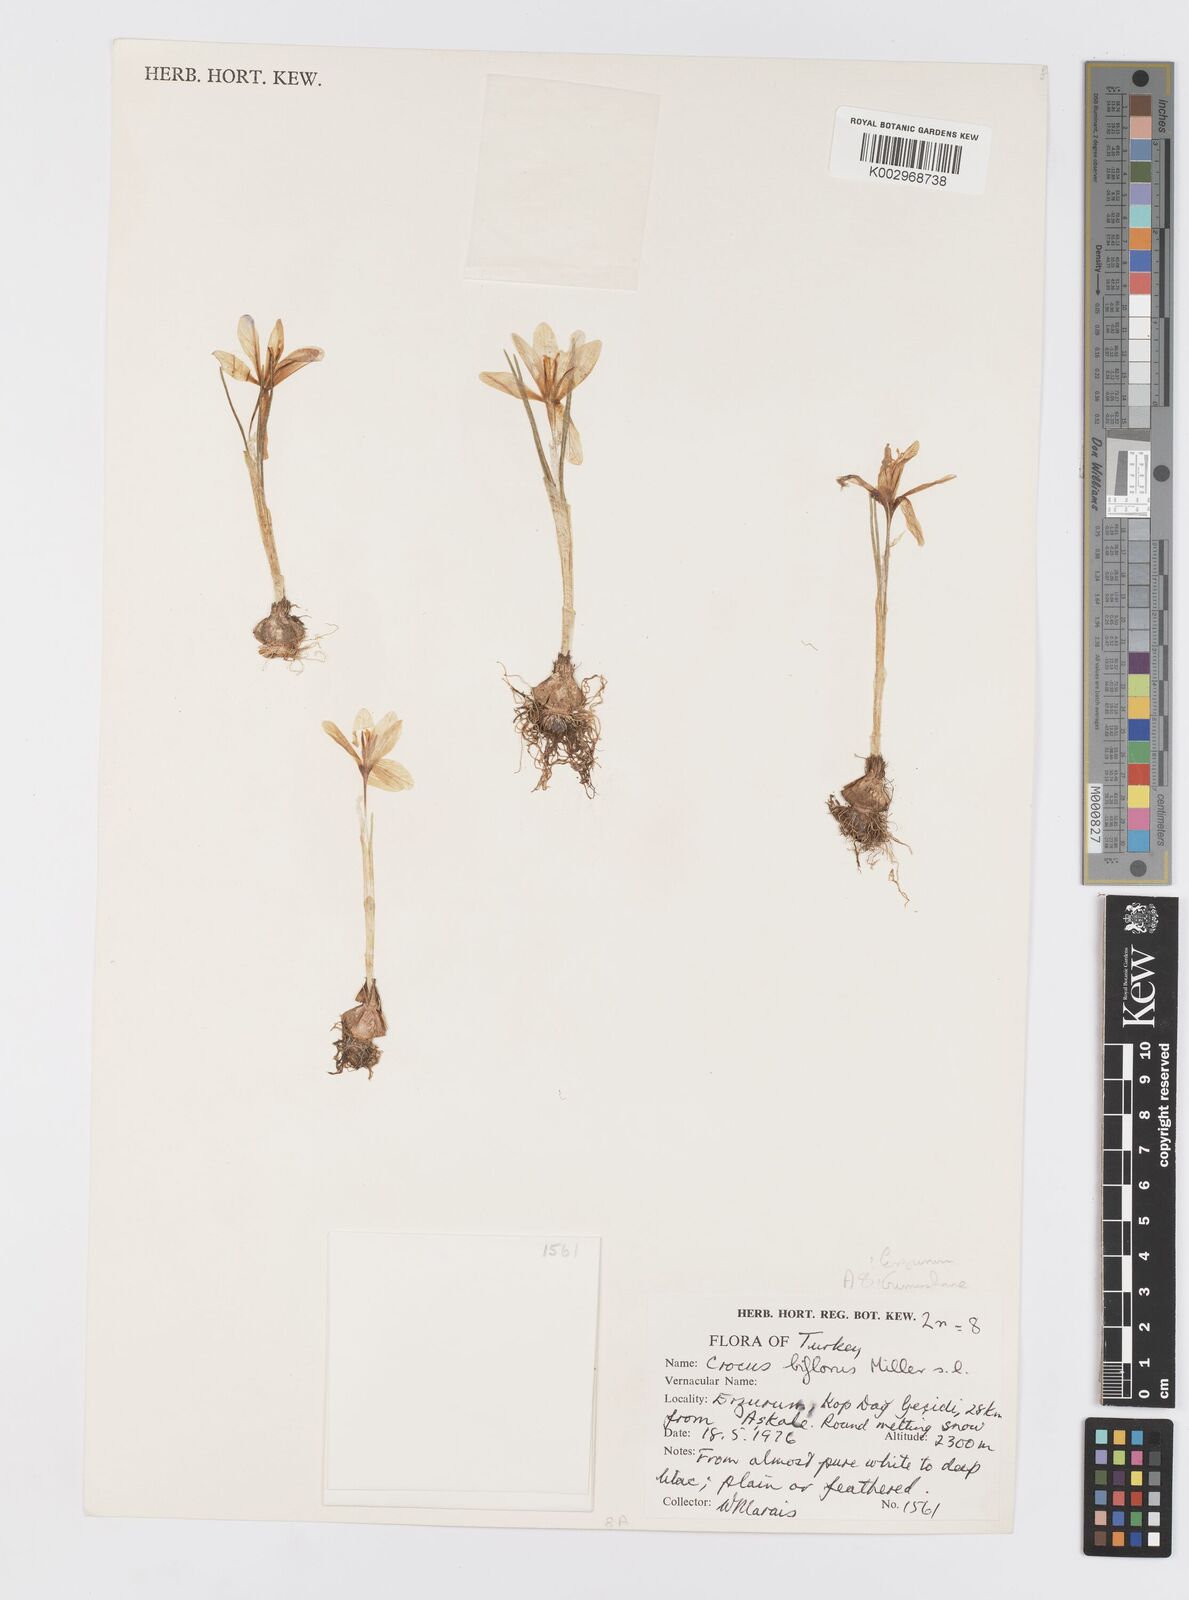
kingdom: Plantae
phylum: Tracheophyta
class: Liliopsida
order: Asparagales
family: Iridaceae
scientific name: Iridaceae
